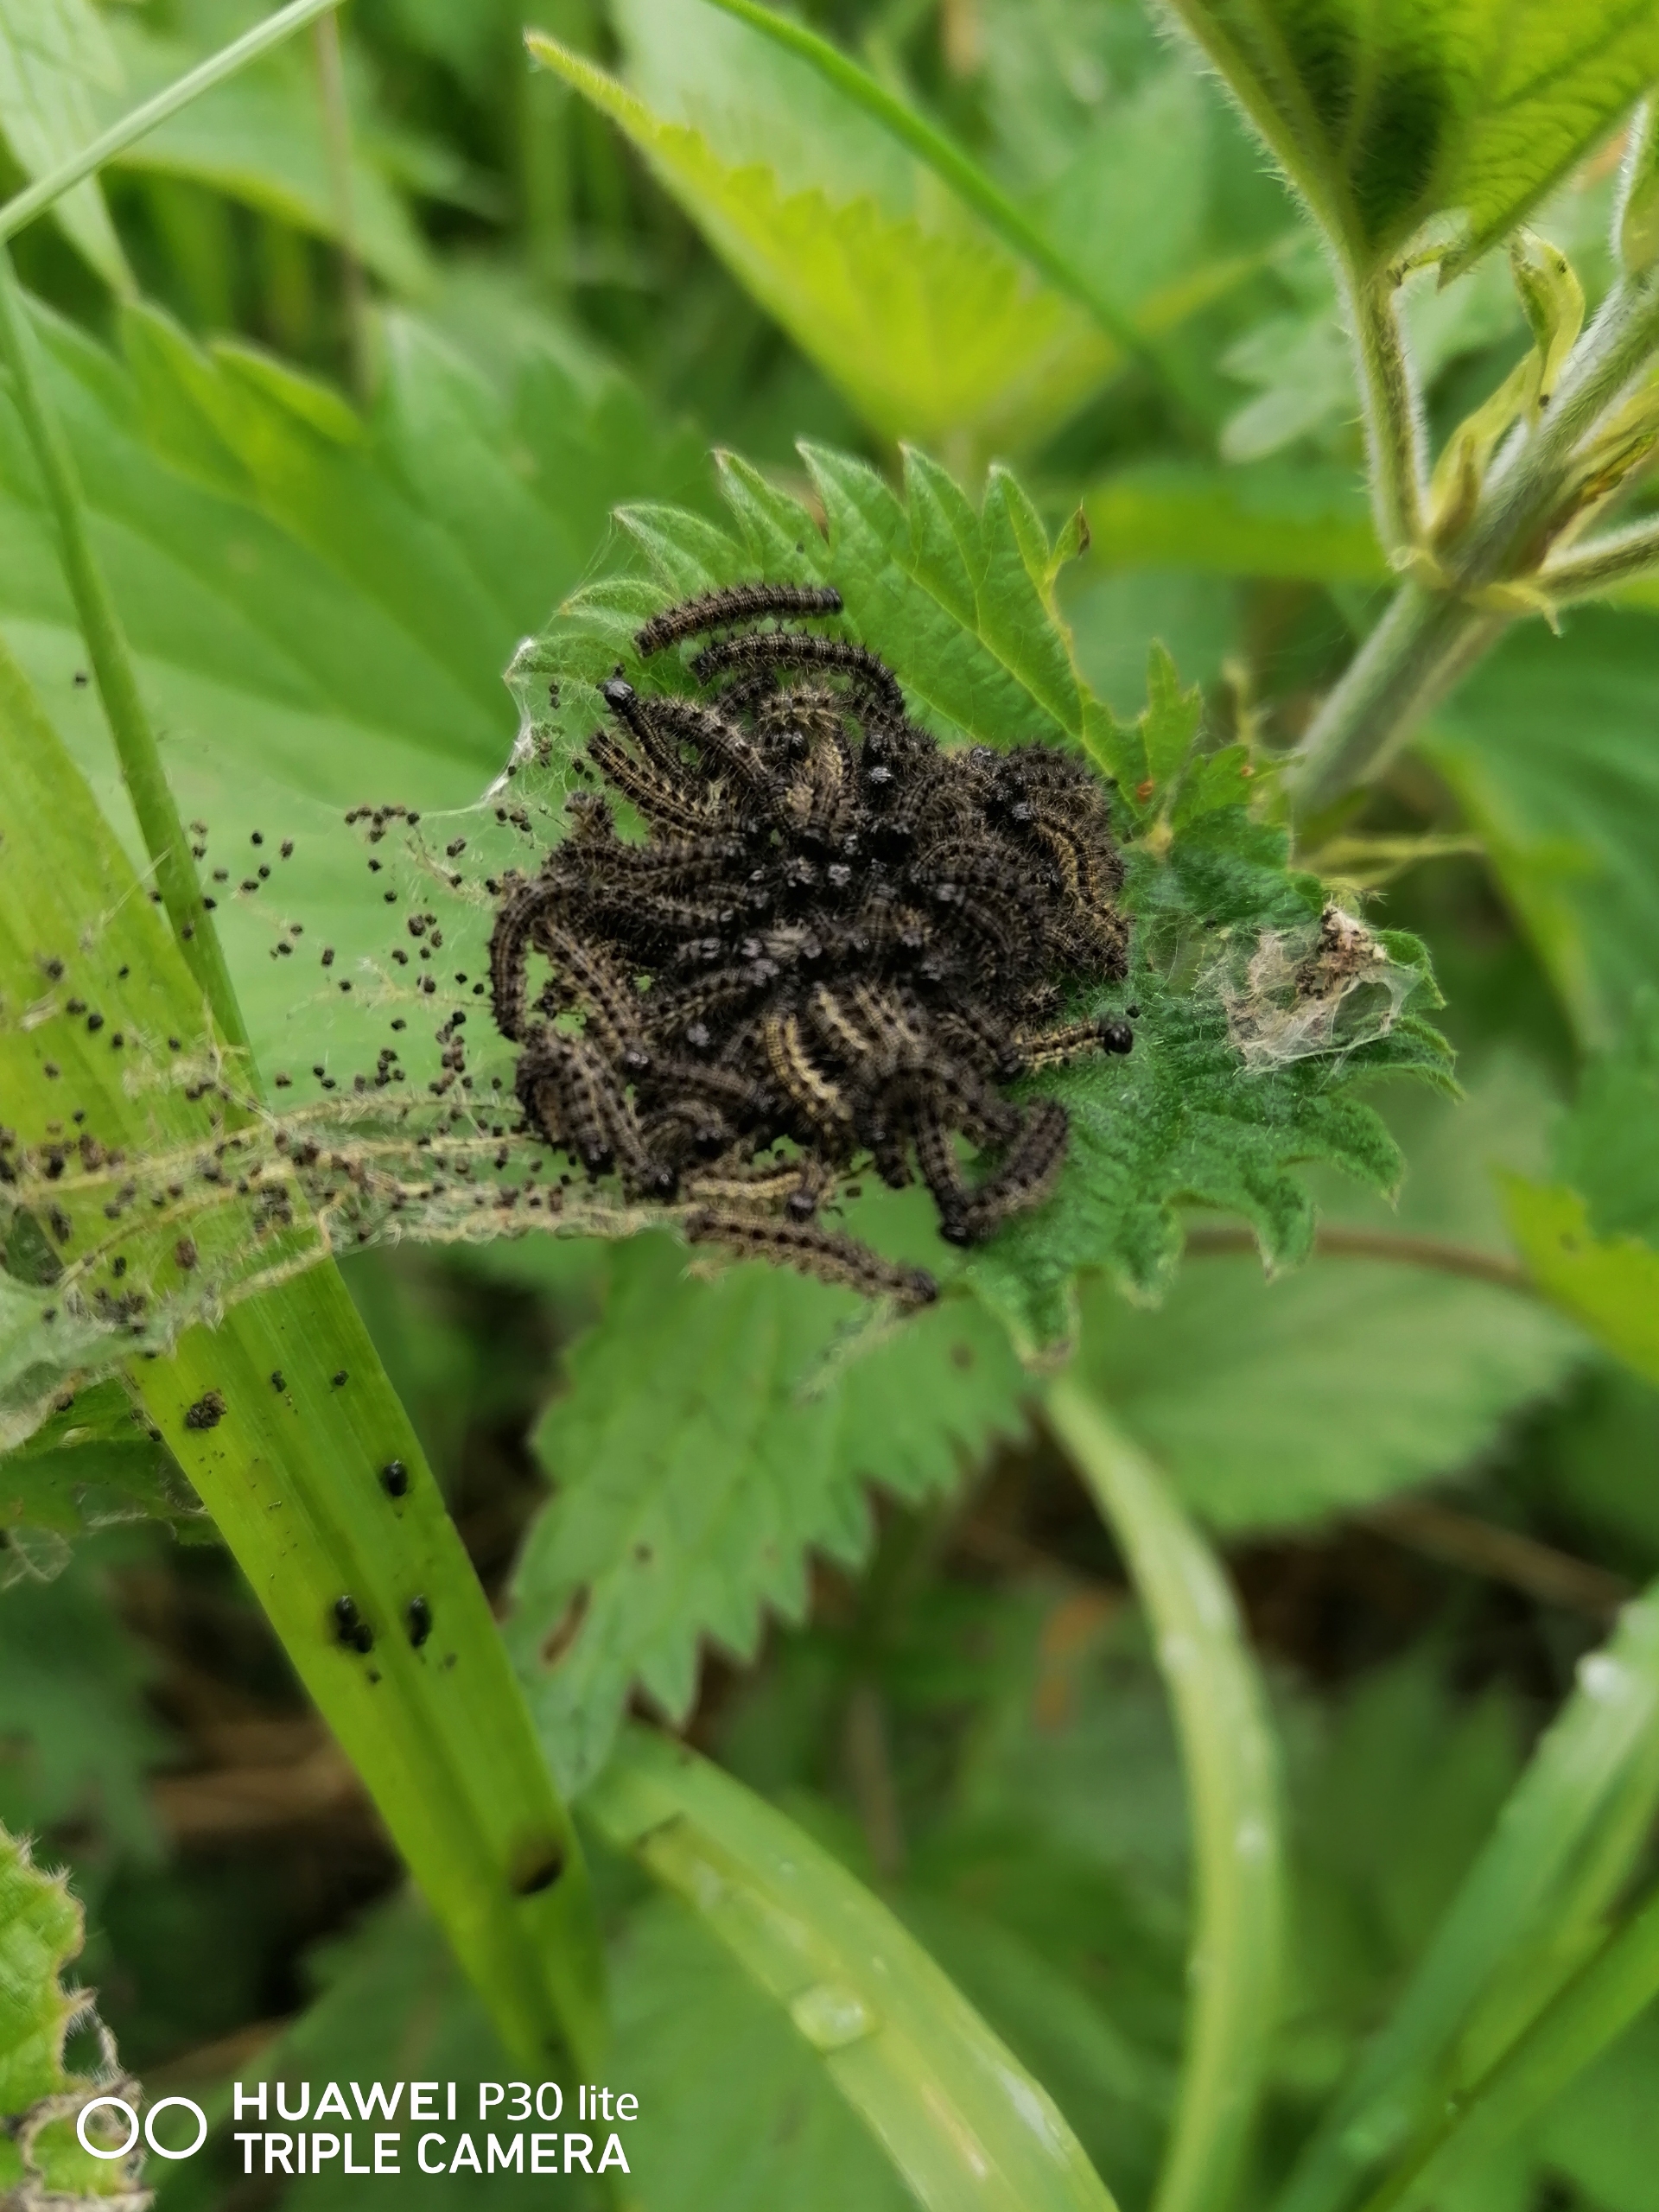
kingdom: Animalia
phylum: Arthropoda
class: Insecta
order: Lepidoptera
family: Nymphalidae
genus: Aglais
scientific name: Aglais urticae
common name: Nældens takvinge
